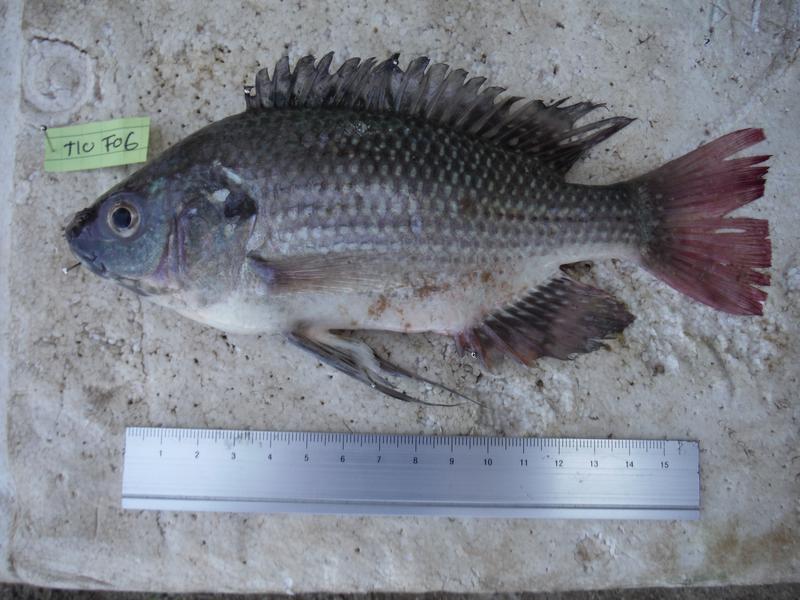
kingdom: Animalia
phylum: Chordata
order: Perciformes
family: Cichlidae
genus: Oreochromis
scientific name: Oreochromis esculentus
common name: Carp
